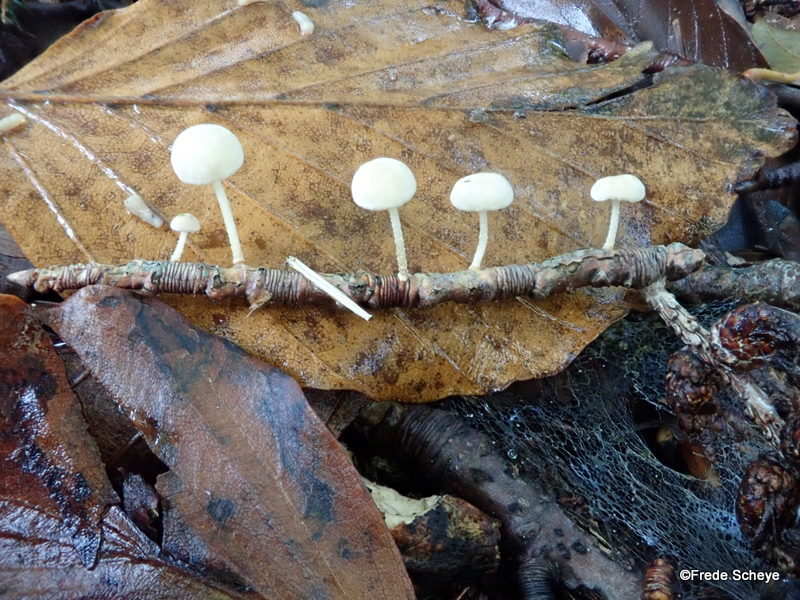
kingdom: Fungi
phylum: Basidiomycota
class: Agaricomycetes
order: Agaricales
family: Omphalotaceae
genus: Collybiopsis
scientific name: Collybiopsis ramealis
